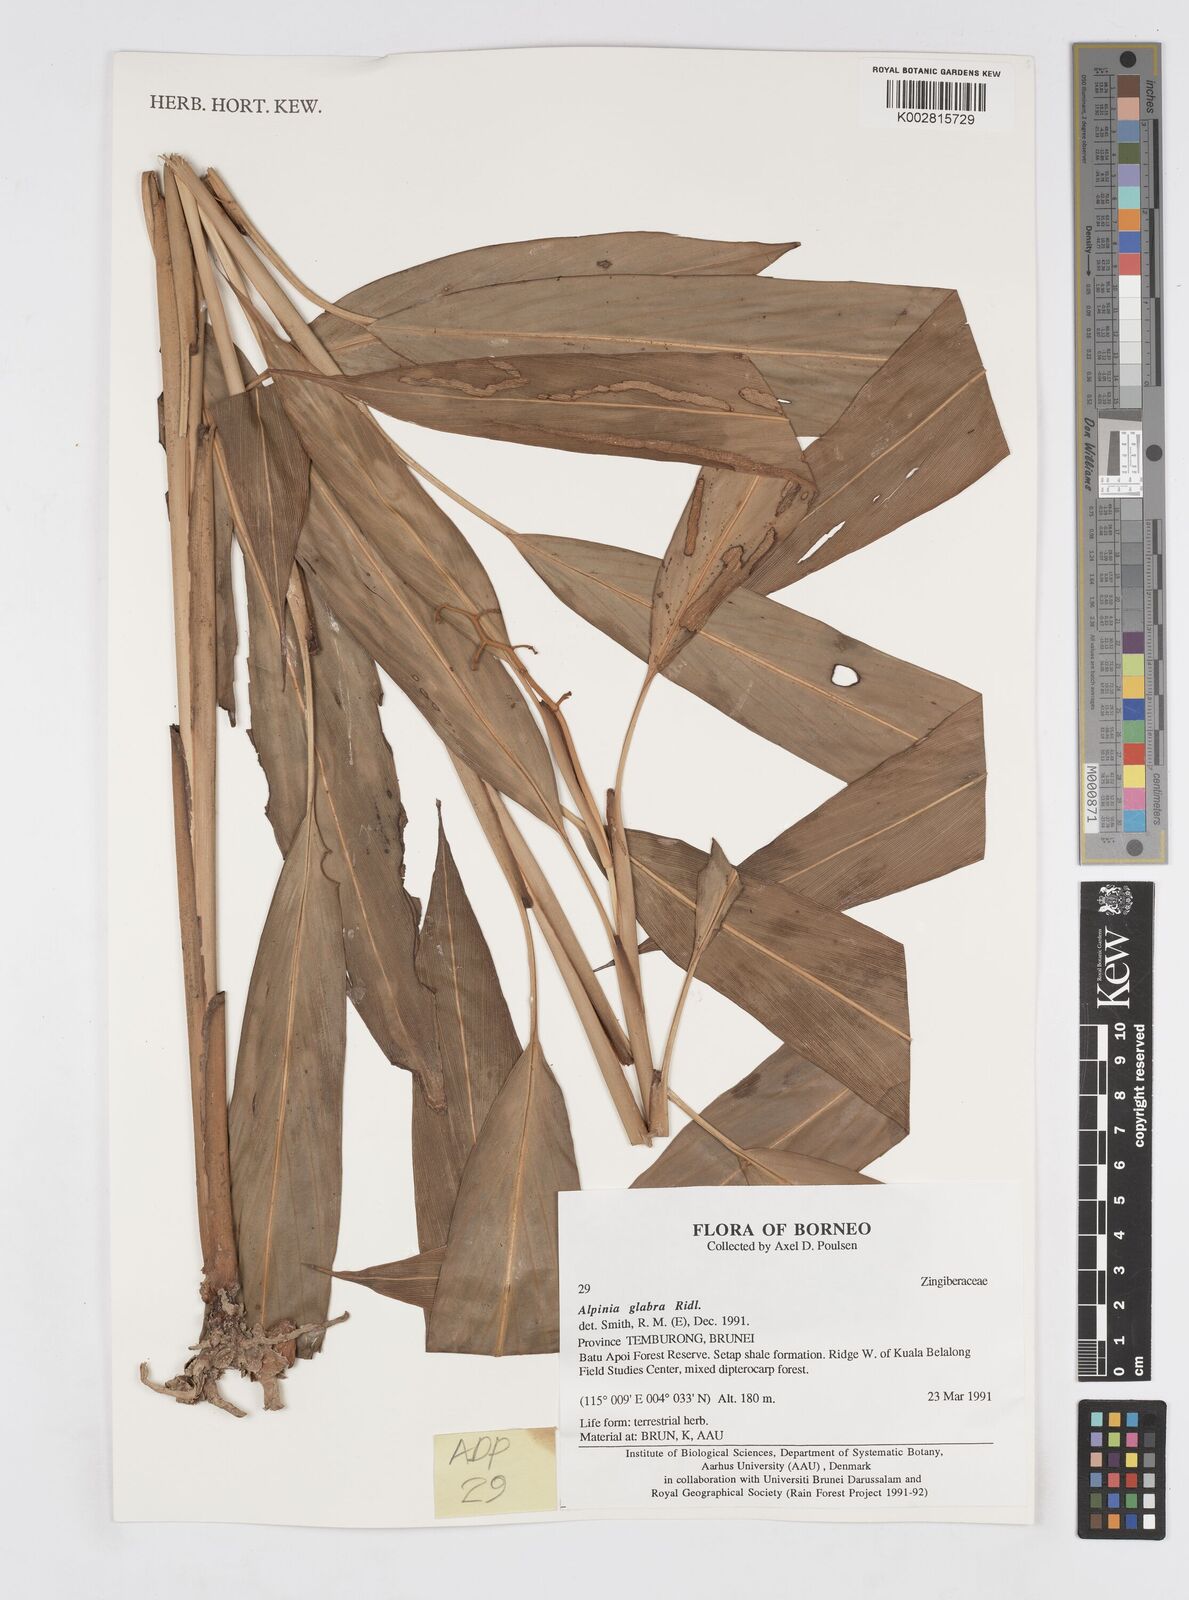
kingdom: Plantae
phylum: Tracheophyta
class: Liliopsida
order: Zingiberales
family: Zingiberaceae
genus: Alpinia
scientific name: Alpinia glabra
